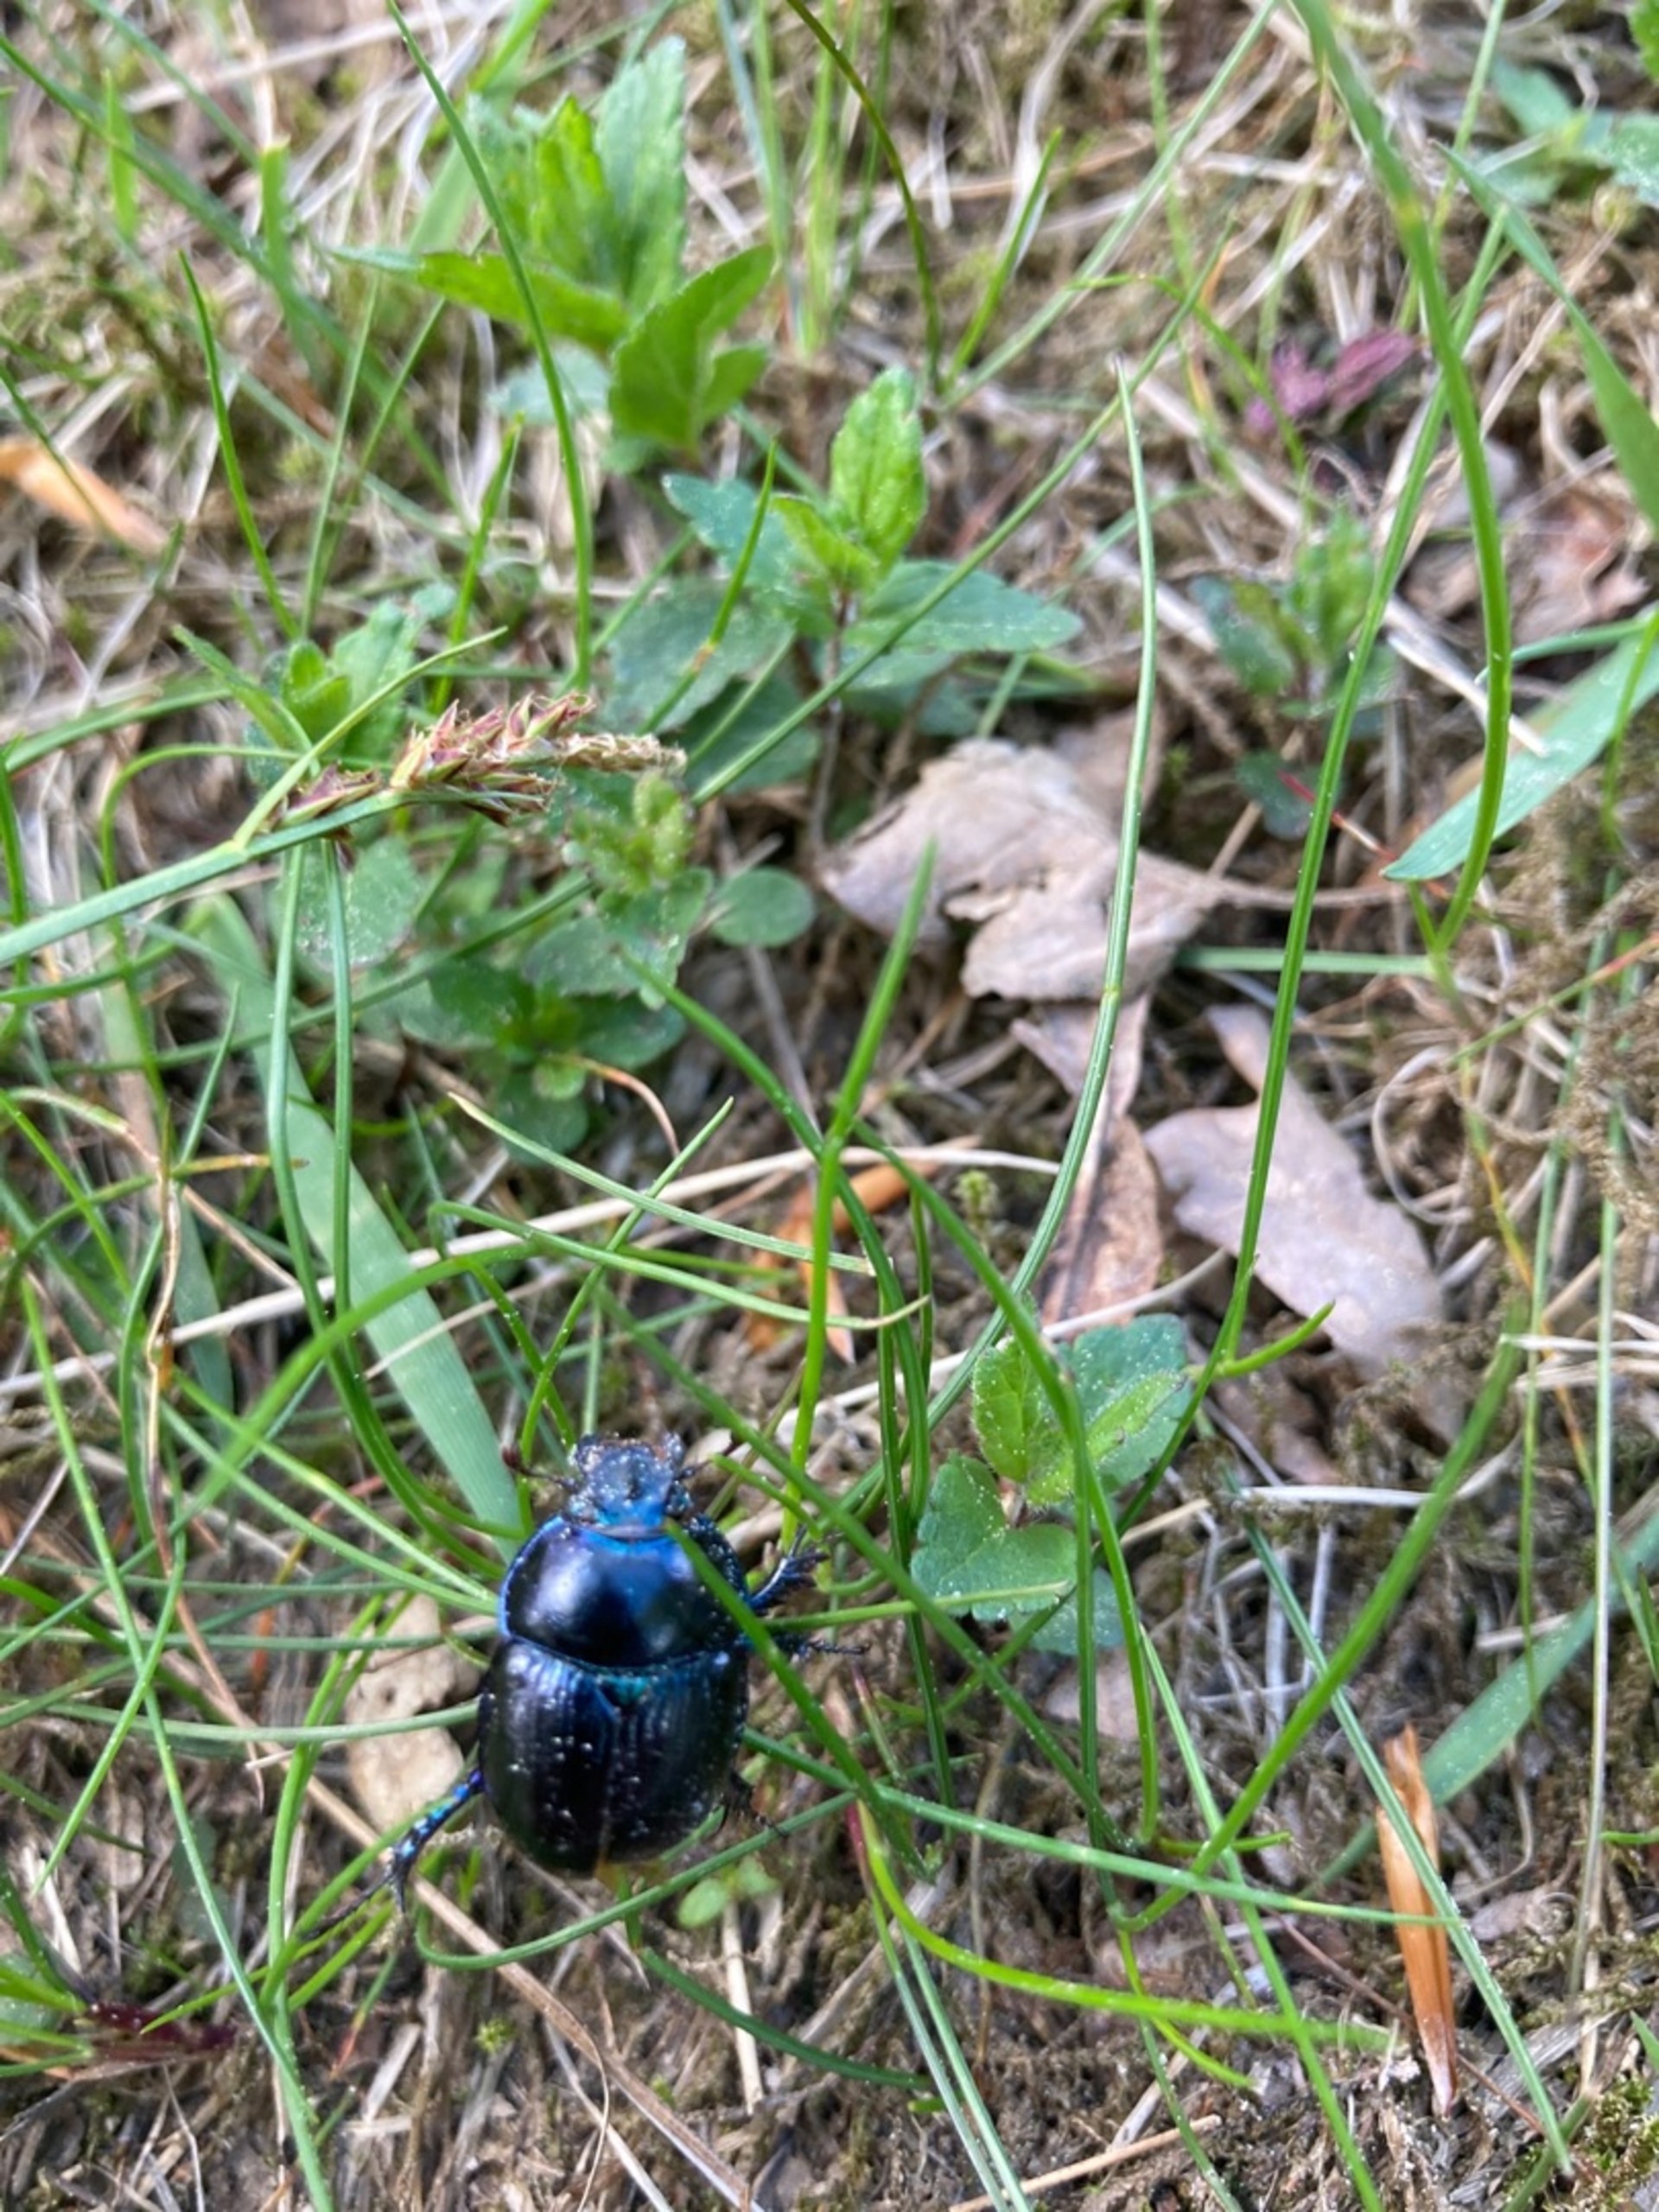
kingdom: Animalia
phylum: Arthropoda
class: Insecta
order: Coleoptera
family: Geotrupidae
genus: Anoplotrupes
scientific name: Anoplotrupes stercorosus
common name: Skovskarnbasse
